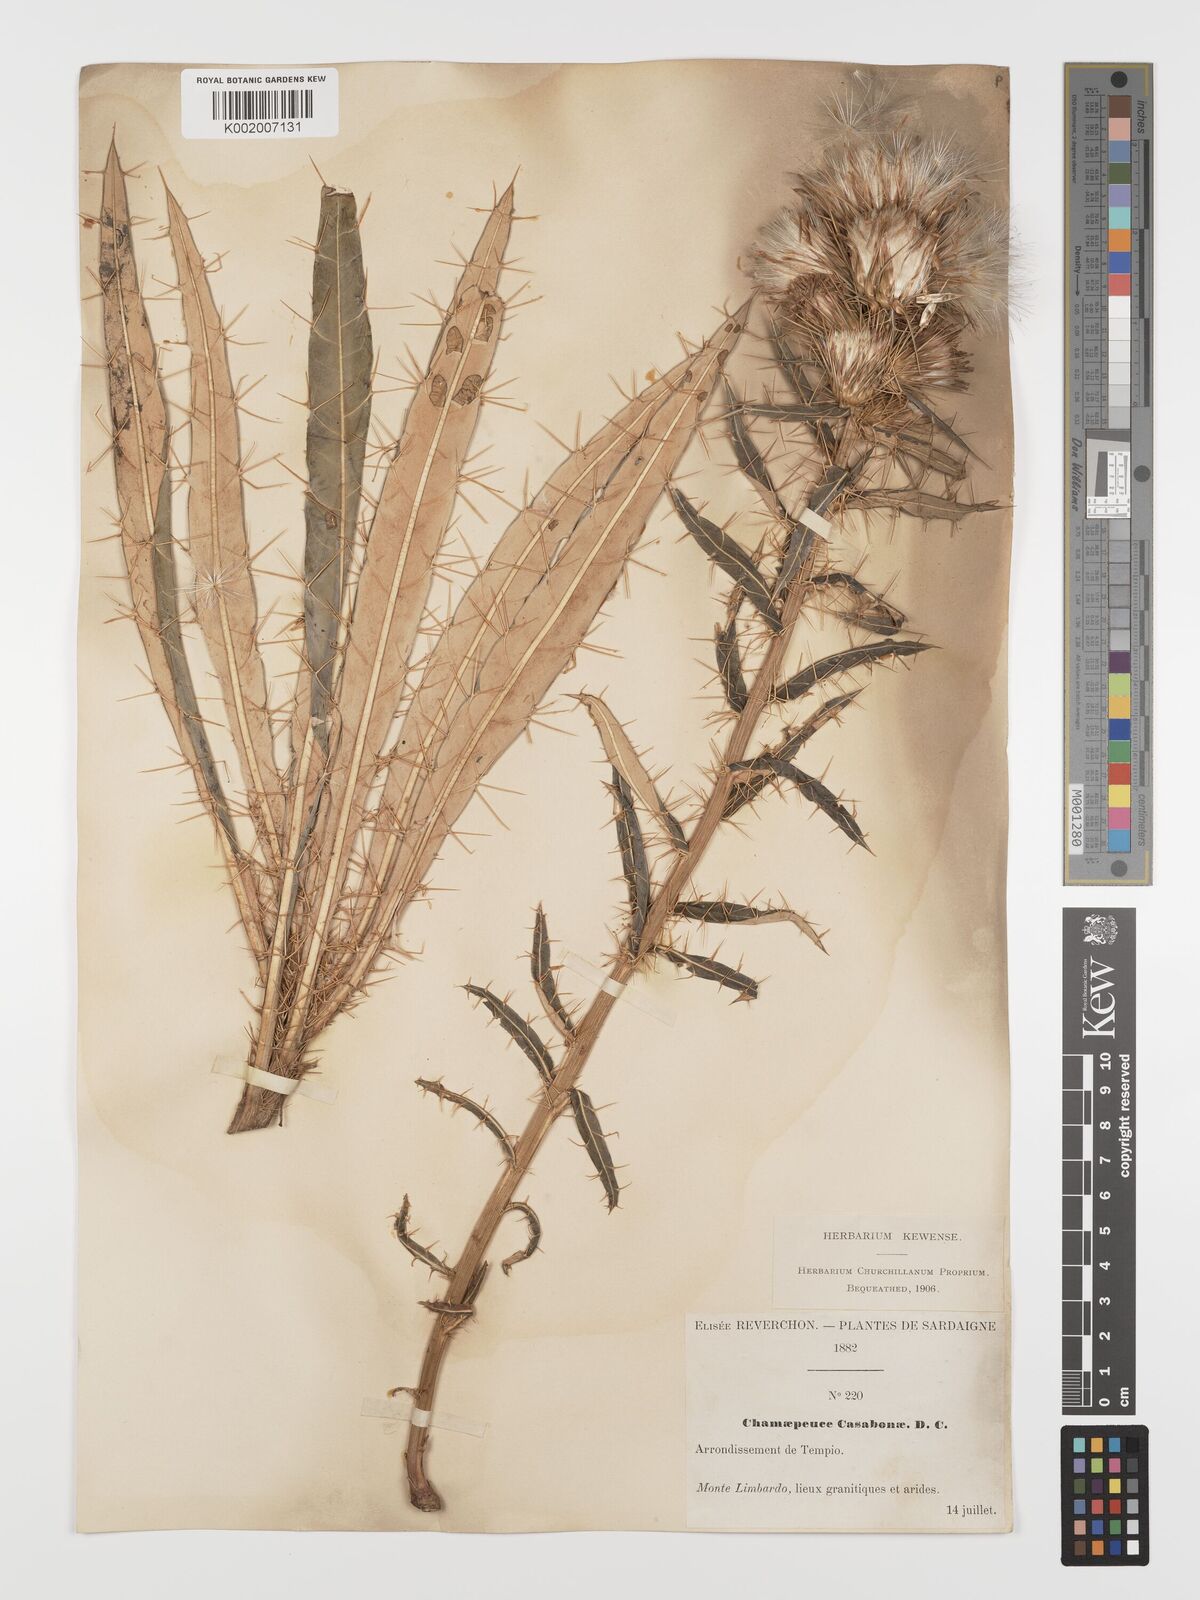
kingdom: Plantae
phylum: Tracheophyta
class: Magnoliopsida
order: Asterales
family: Asteraceae
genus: Ptilostemon
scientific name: Ptilostemon casabonae
